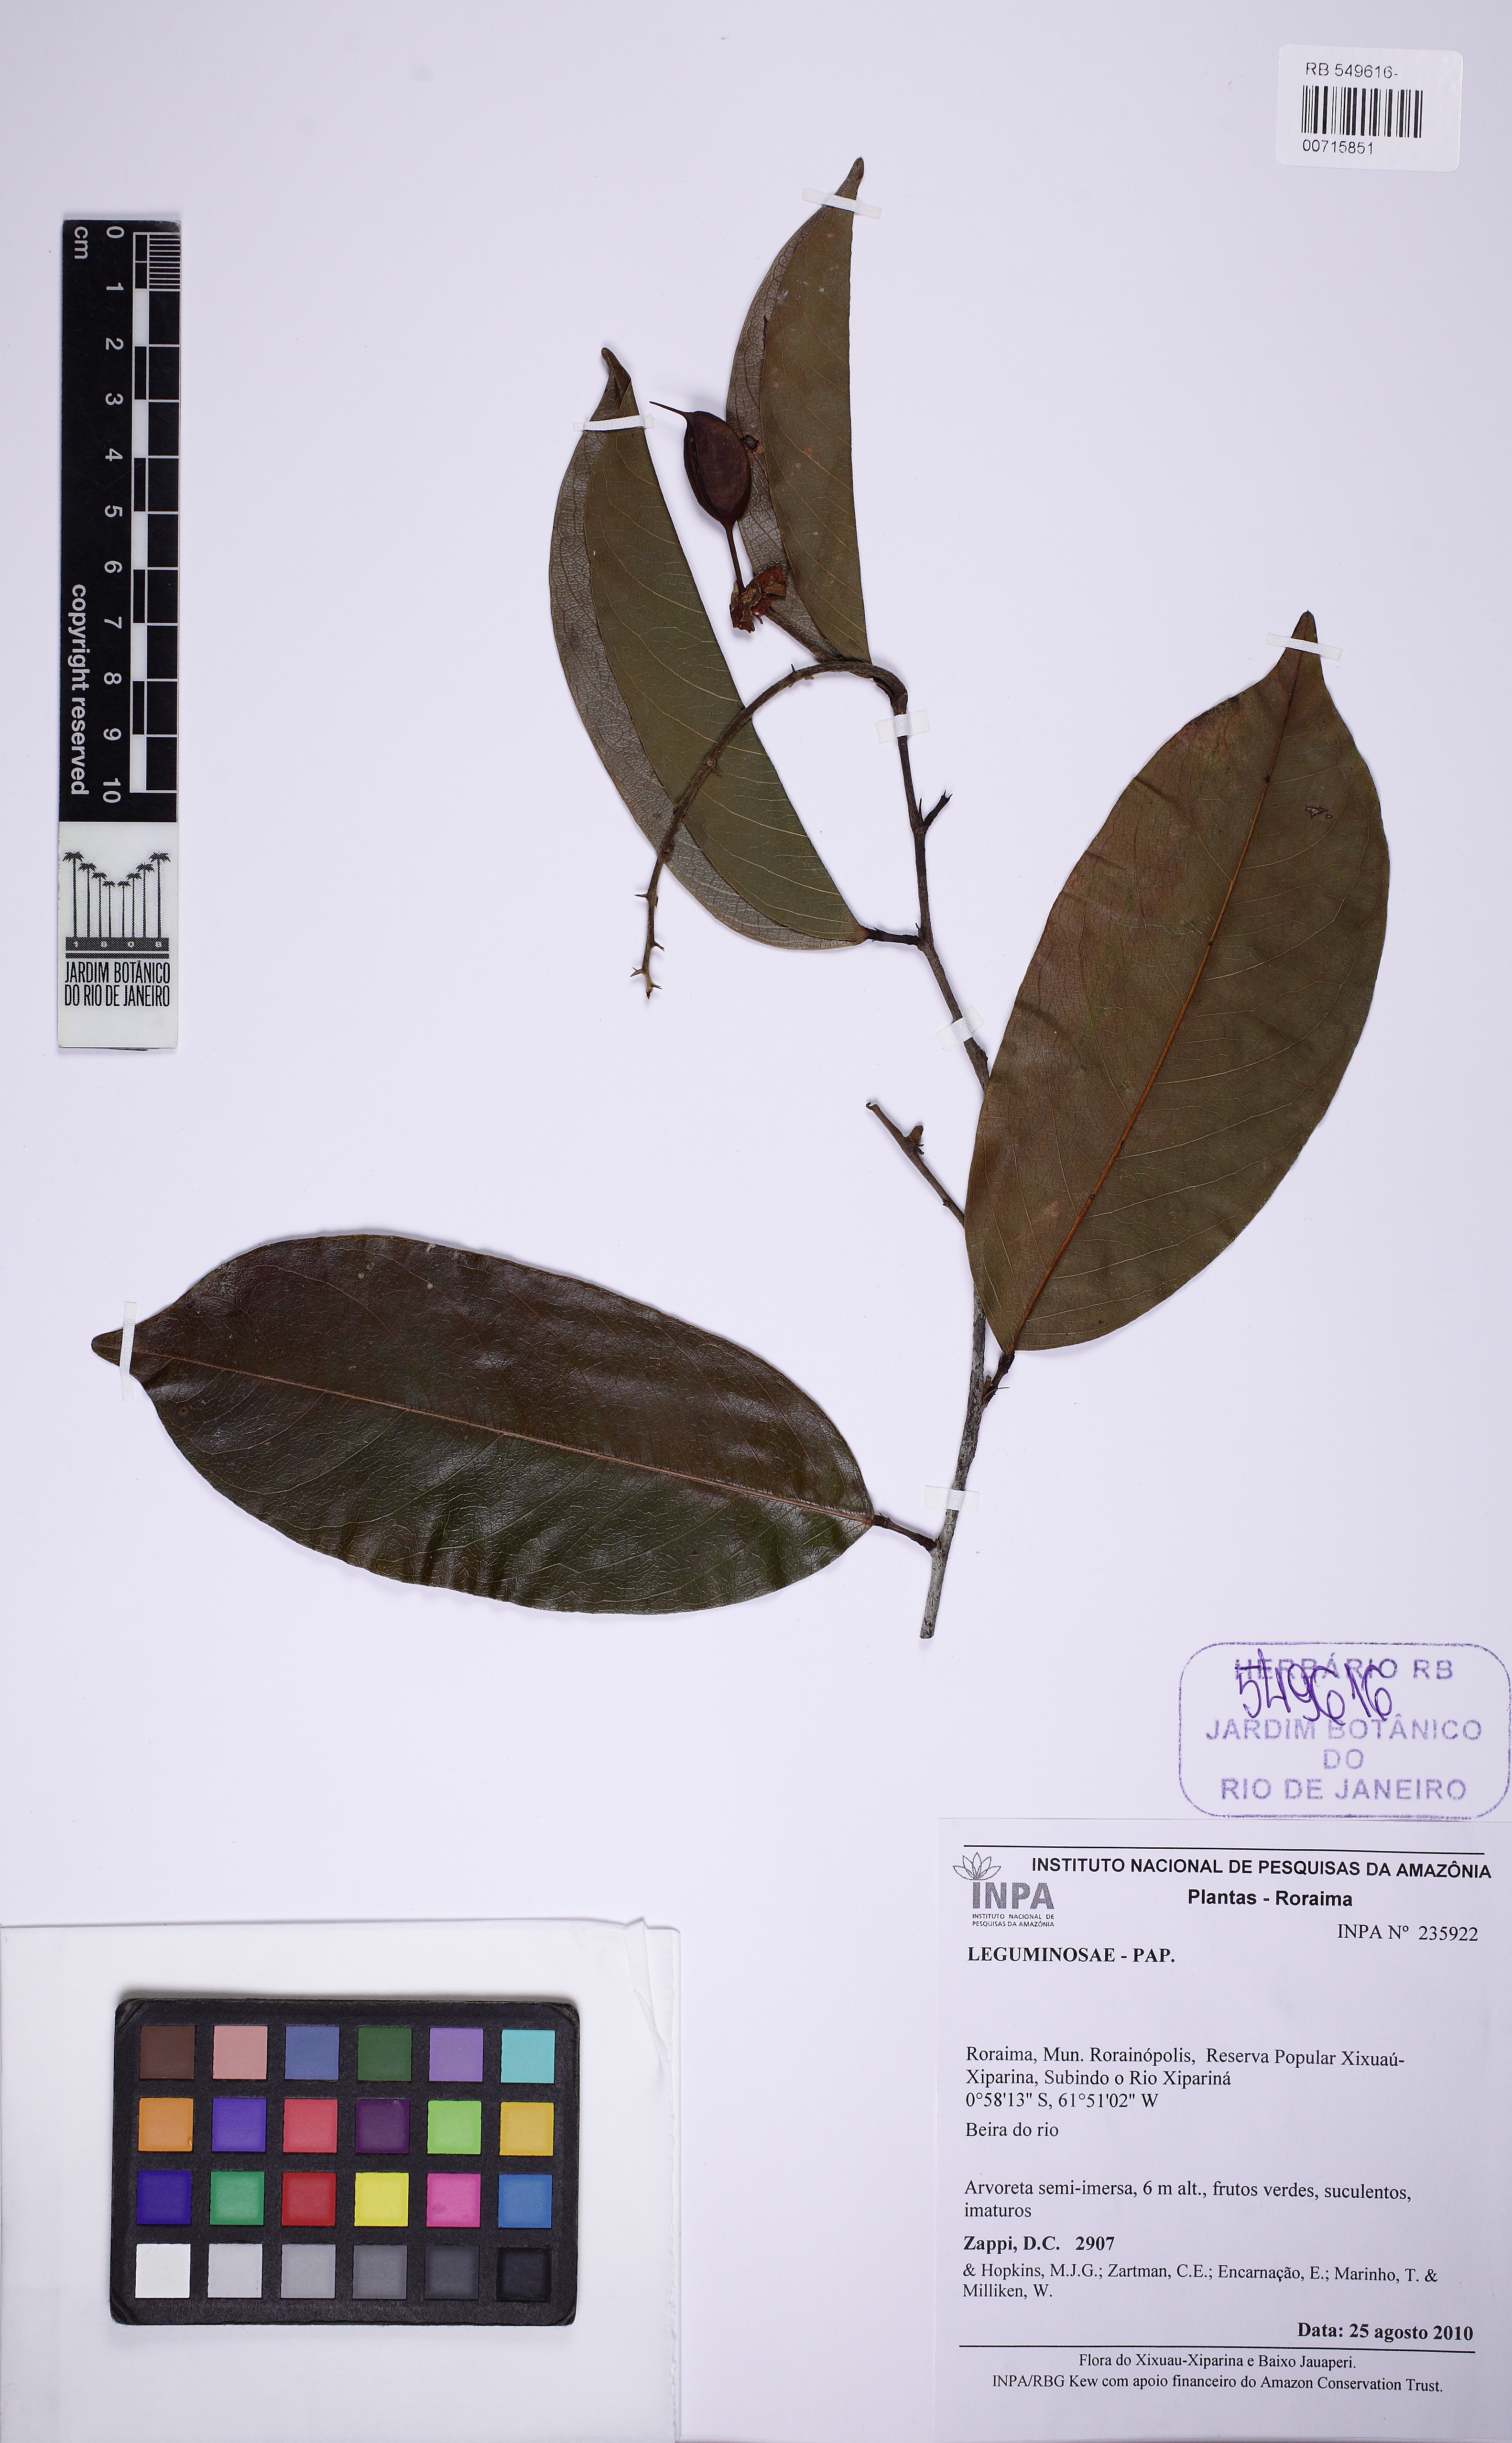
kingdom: Plantae
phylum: Tracheophyta
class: Magnoliopsida
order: Fabales
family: Fabaceae
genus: Swartzia
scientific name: Swartzia anomala
